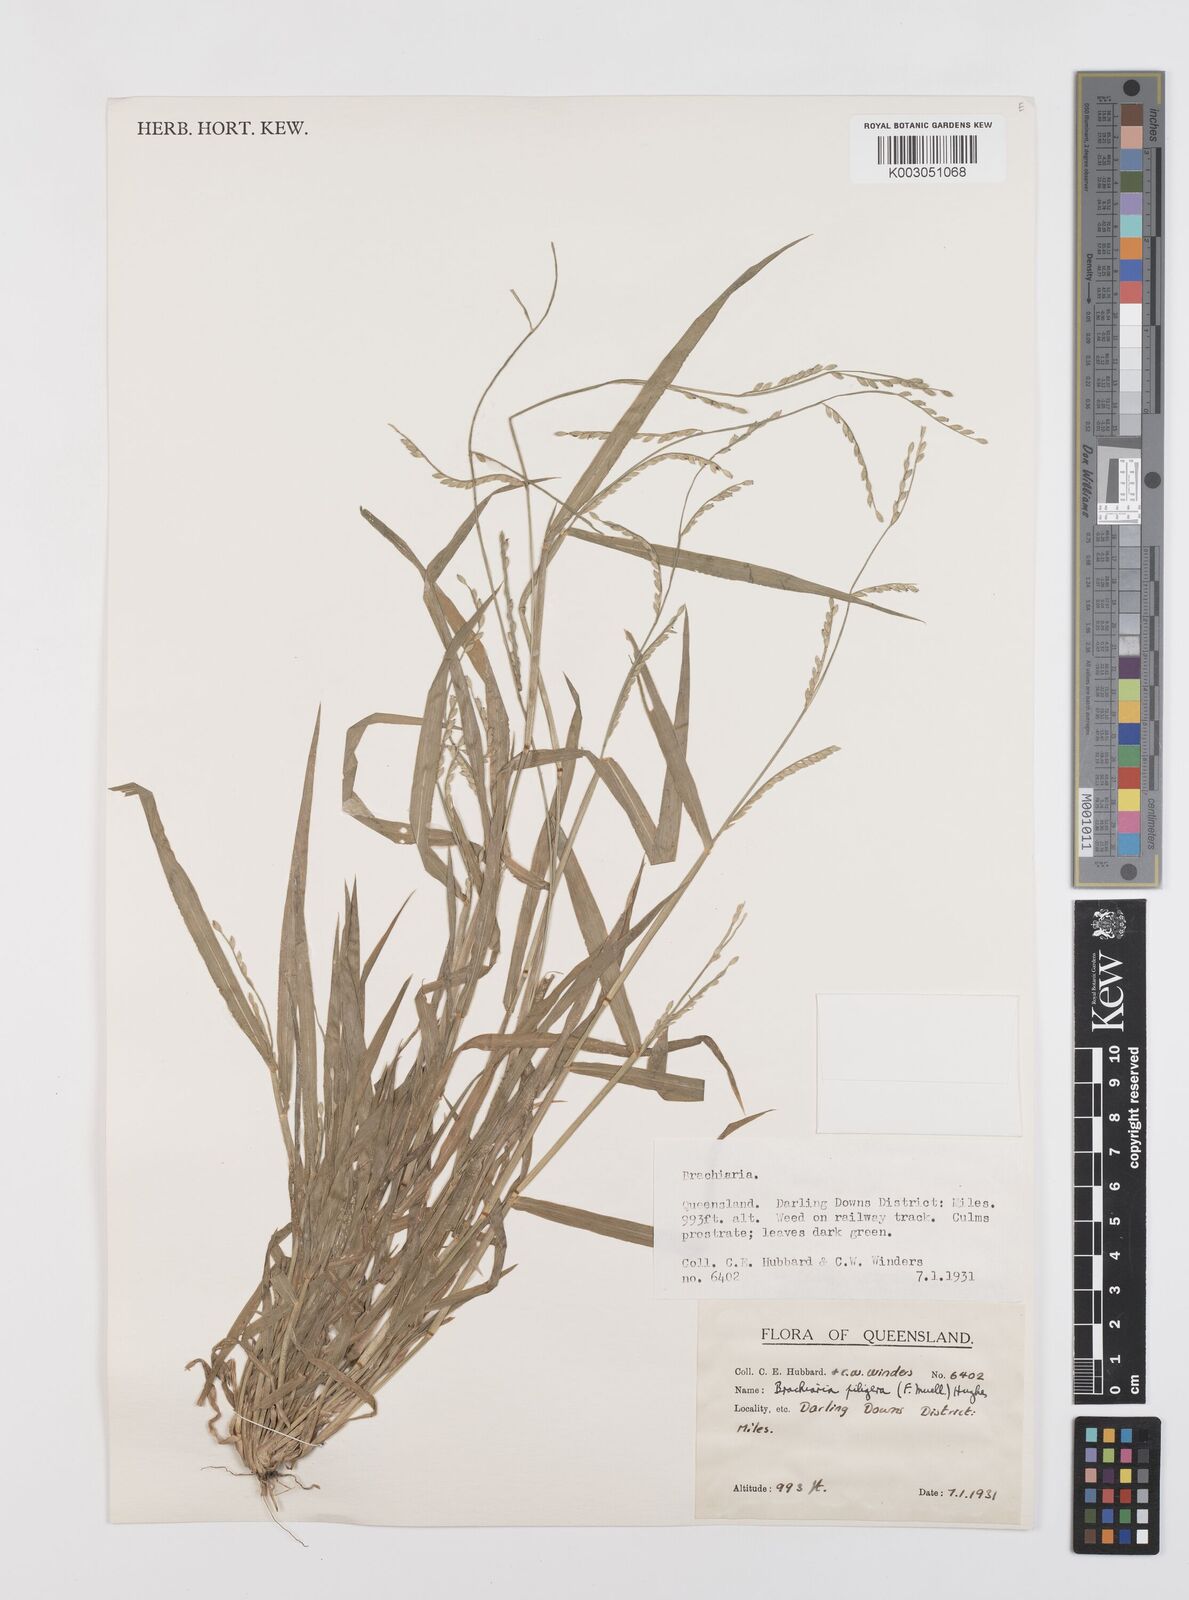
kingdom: Plantae
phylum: Tracheophyta
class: Liliopsida
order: Poales
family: Poaceae
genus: Urochloa
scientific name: Urochloa piligera
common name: Wattle signalgrass
